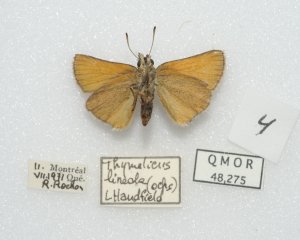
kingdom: Animalia
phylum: Arthropoda
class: Insecta
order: Lepidoptera
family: Hesperiidae
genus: Thymelicus
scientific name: Thymelicus lineola
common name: European Skipper
